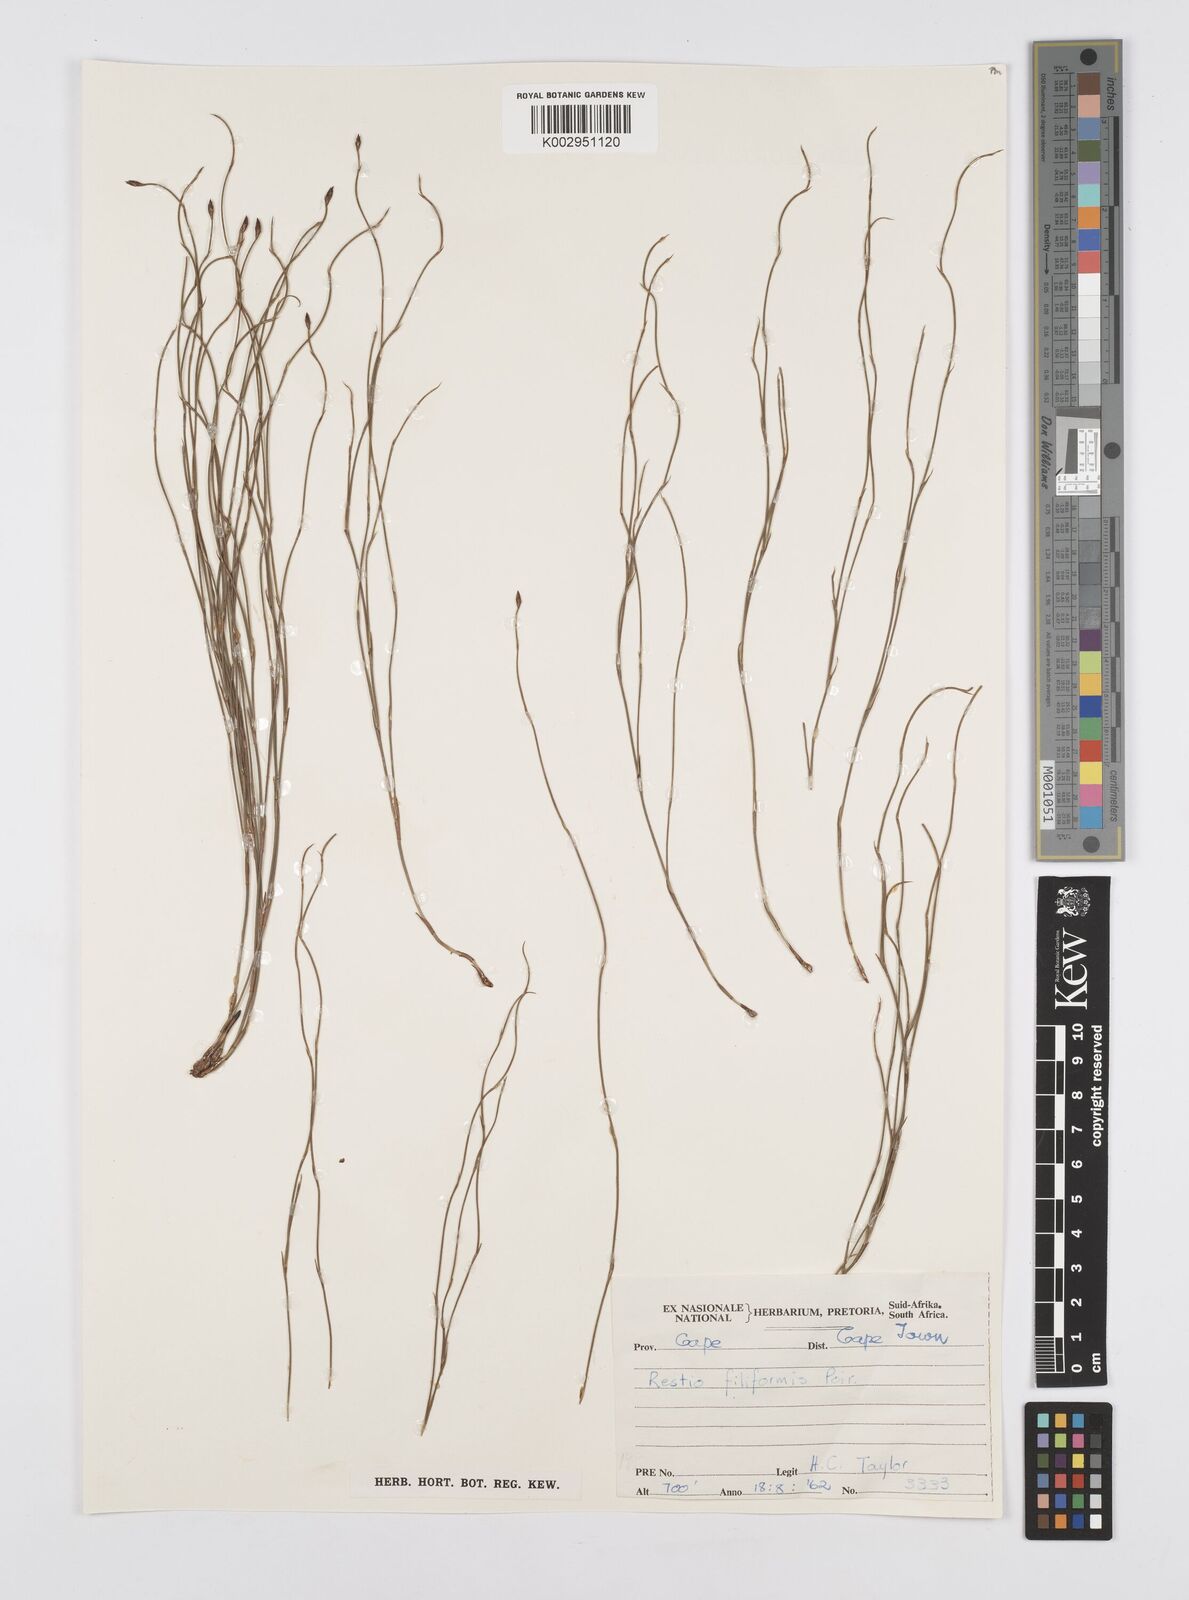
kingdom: Plantae
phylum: Tracheophyta
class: Liliopsida
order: Poales
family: Restionaceae
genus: Restio
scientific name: Restio filiformis
